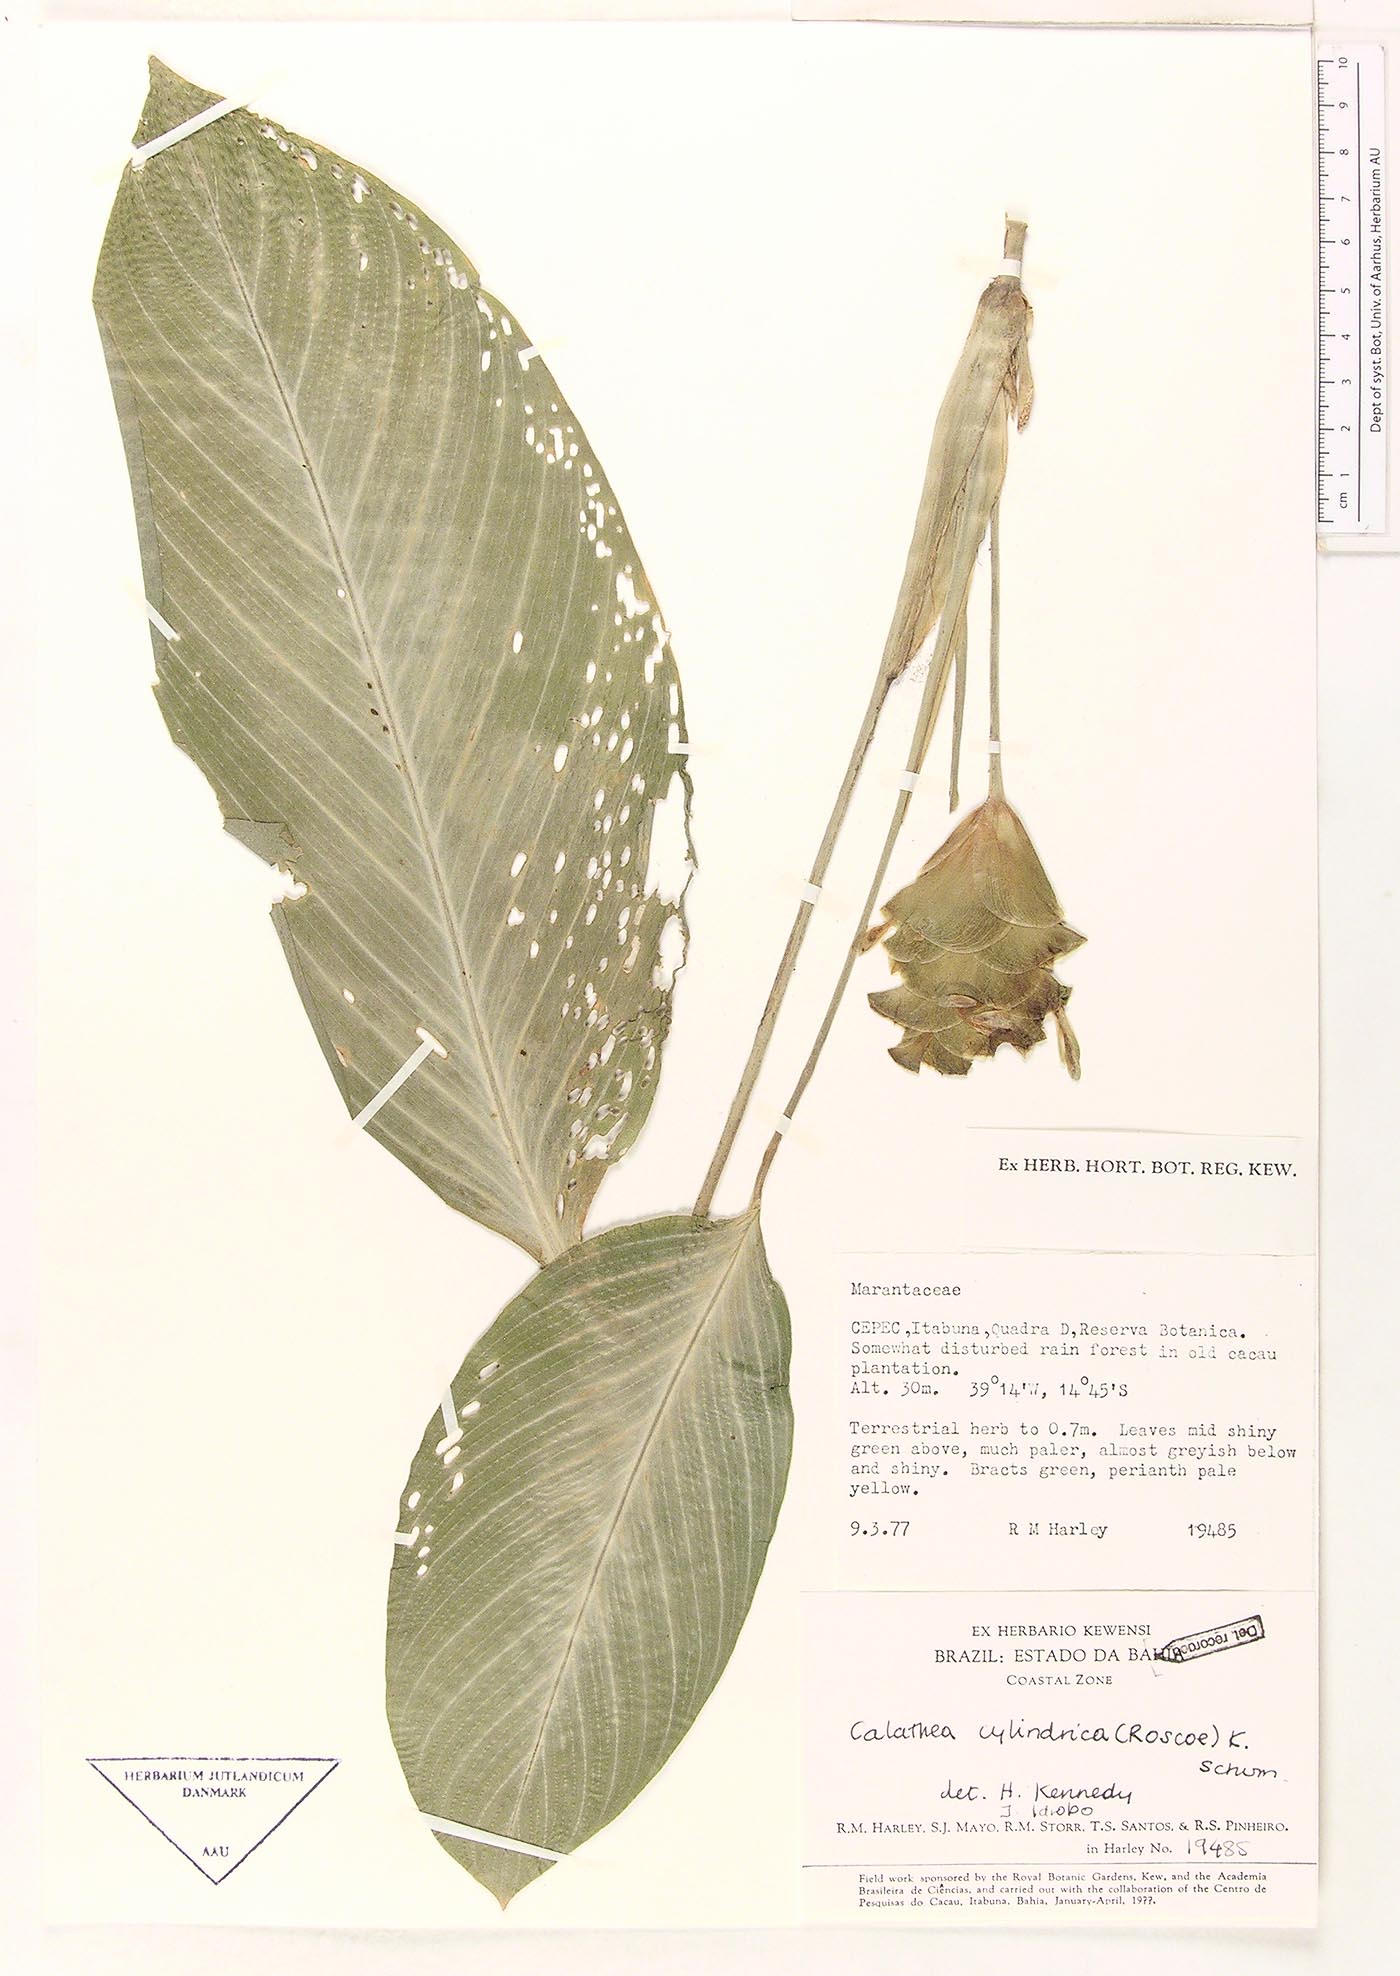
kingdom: Plantae
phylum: Tracheophyta
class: Liliopsida
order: Zingiberales
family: Marantaceae
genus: Goeppertia
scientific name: Goeppertia cylindrica
